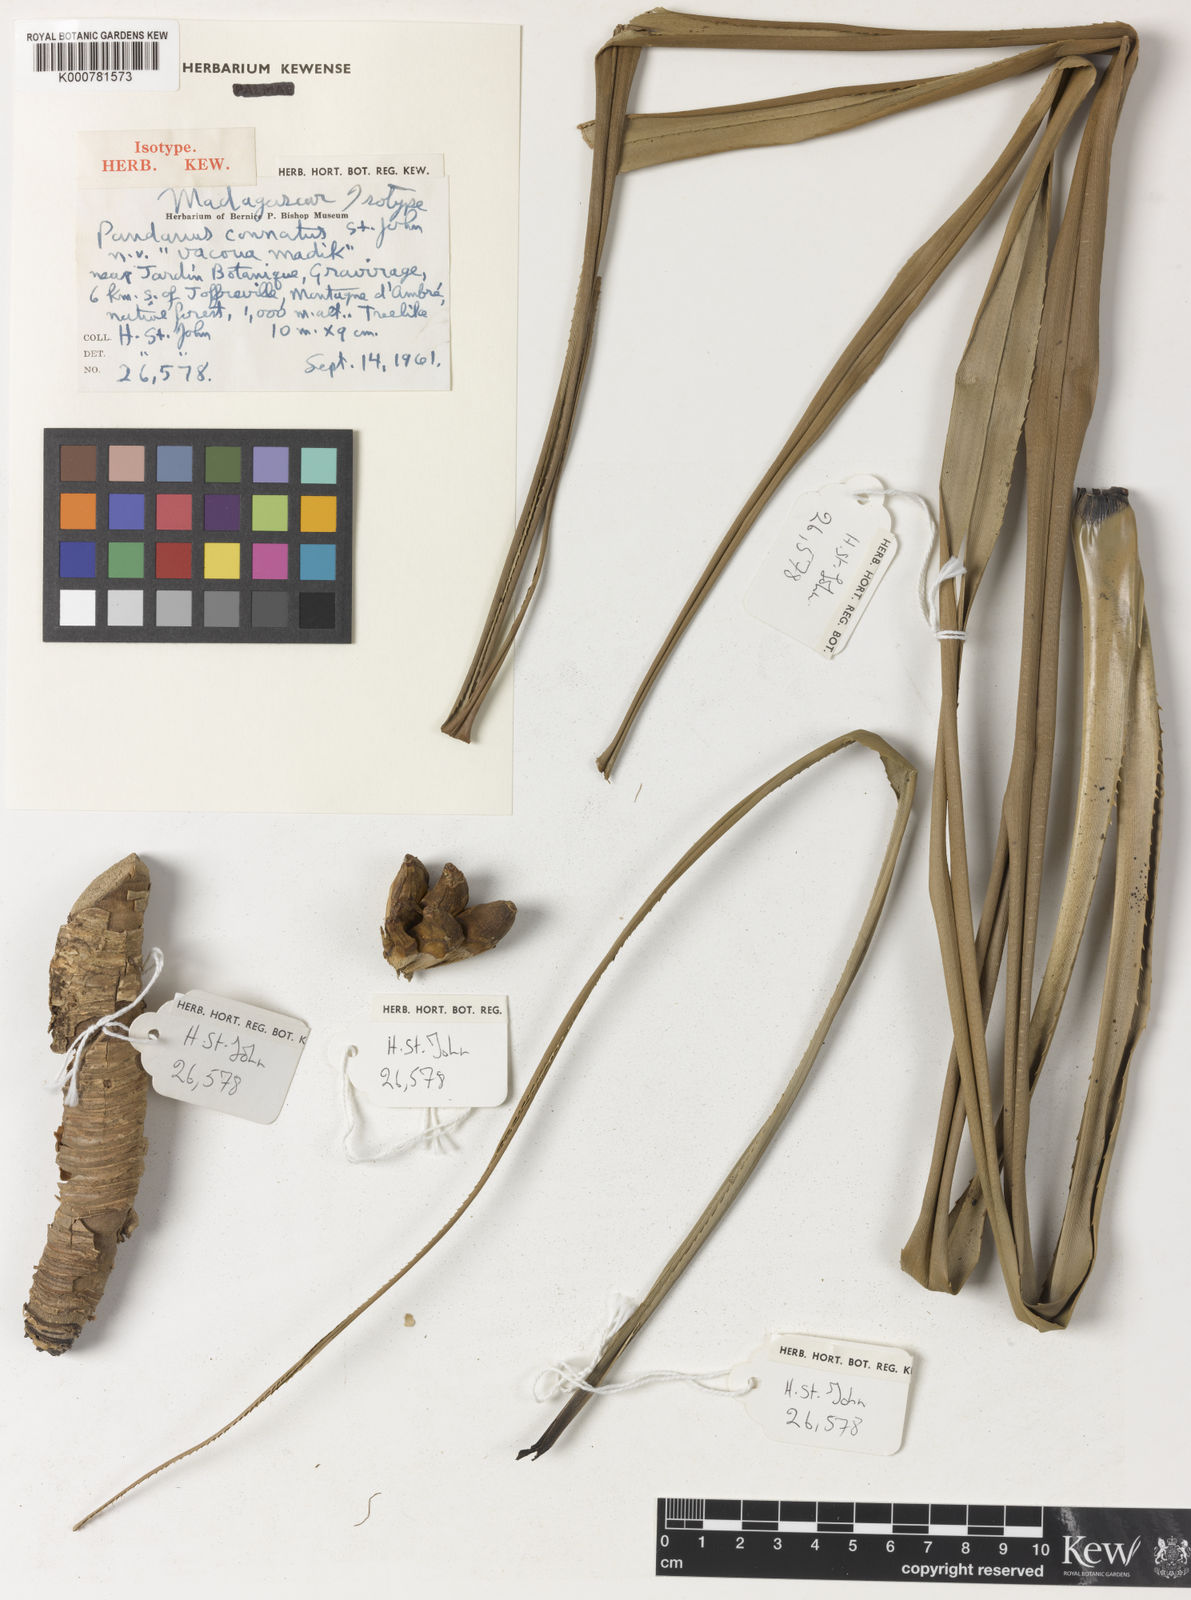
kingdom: Plantae
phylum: Tracheophyta
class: Liliopsida
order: Pandanales
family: Pandanaceae
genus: Pandanus
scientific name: Pandanus connatus
